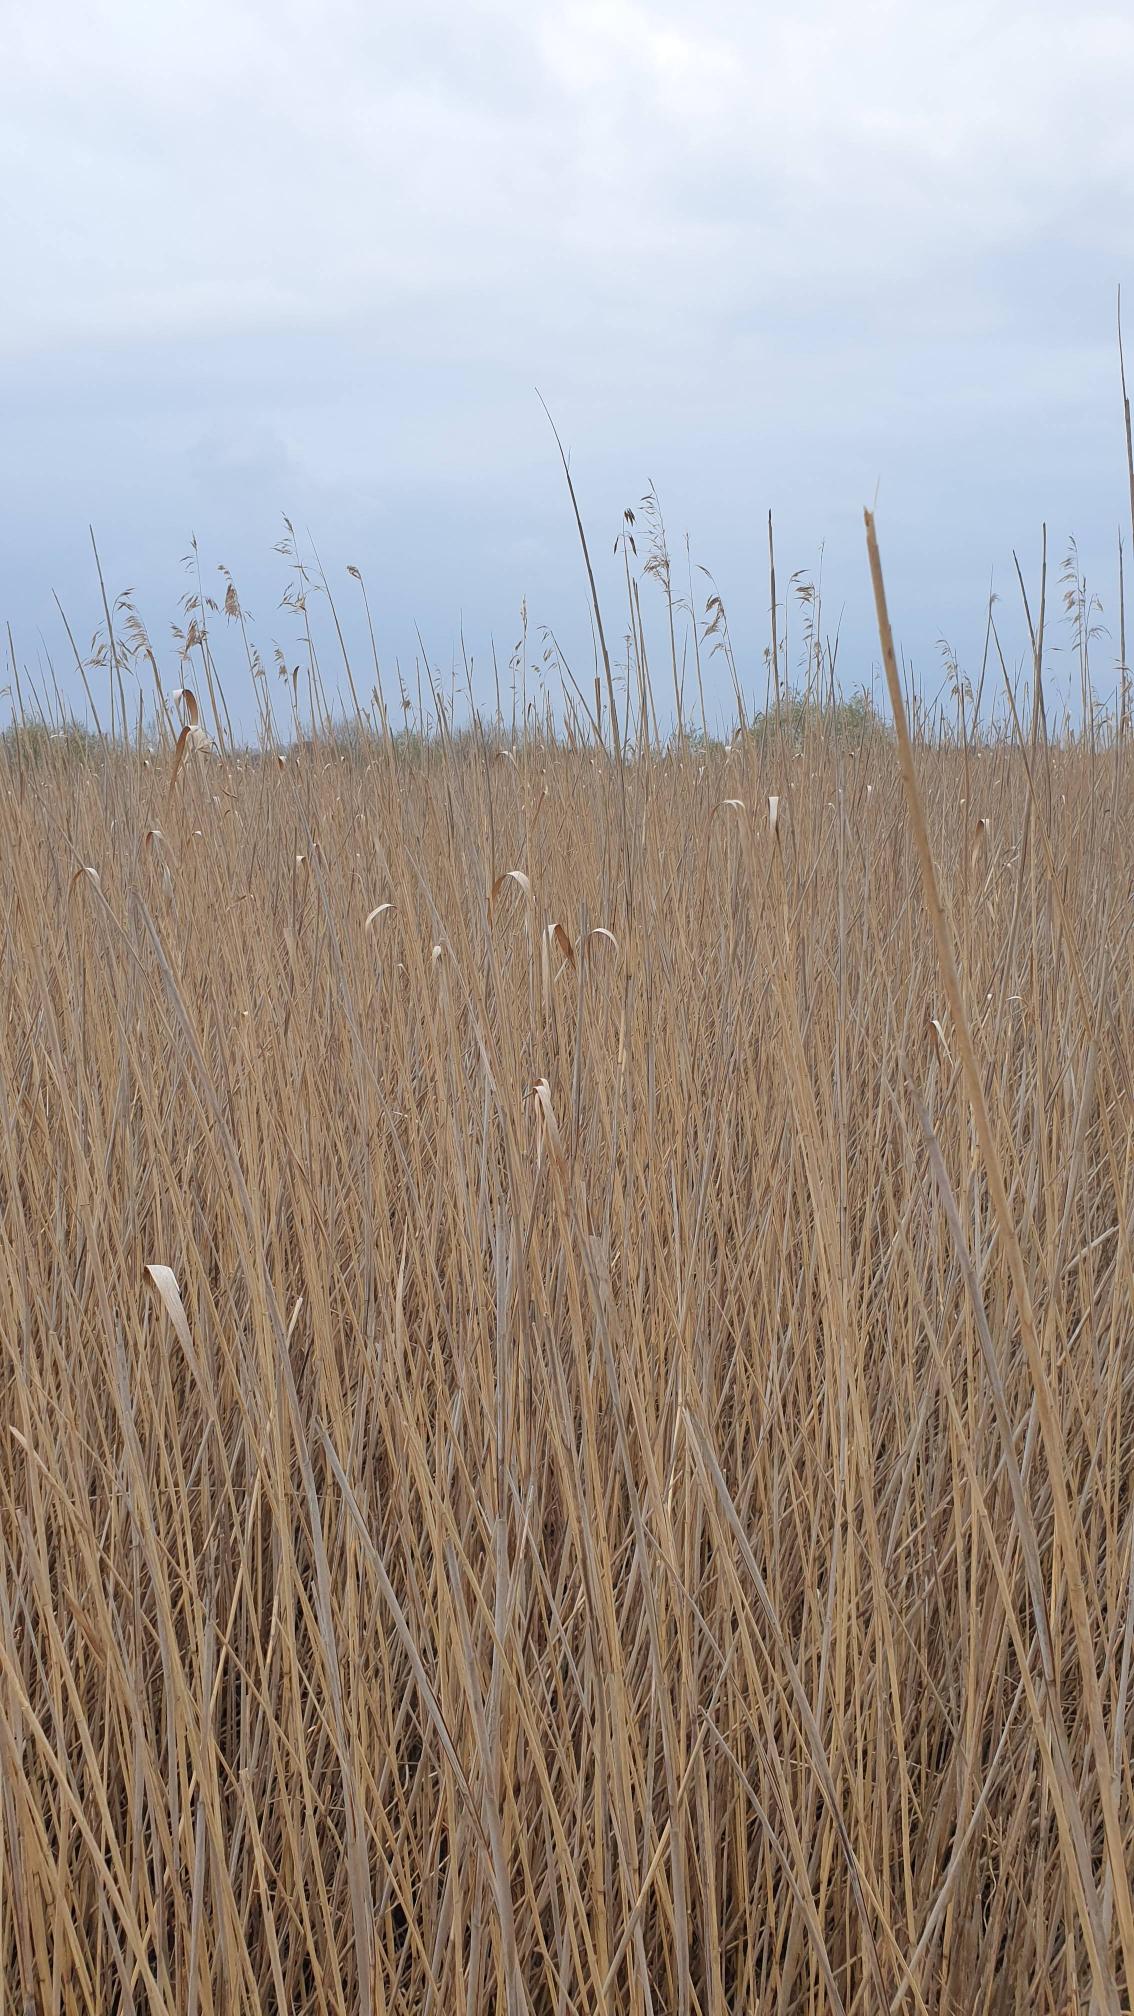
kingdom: Plantae
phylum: Tracheophyta
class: Liliopsida
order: Poales
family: Poaceae
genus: Phragmites
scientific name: Phragmites australis
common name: Tagrør
